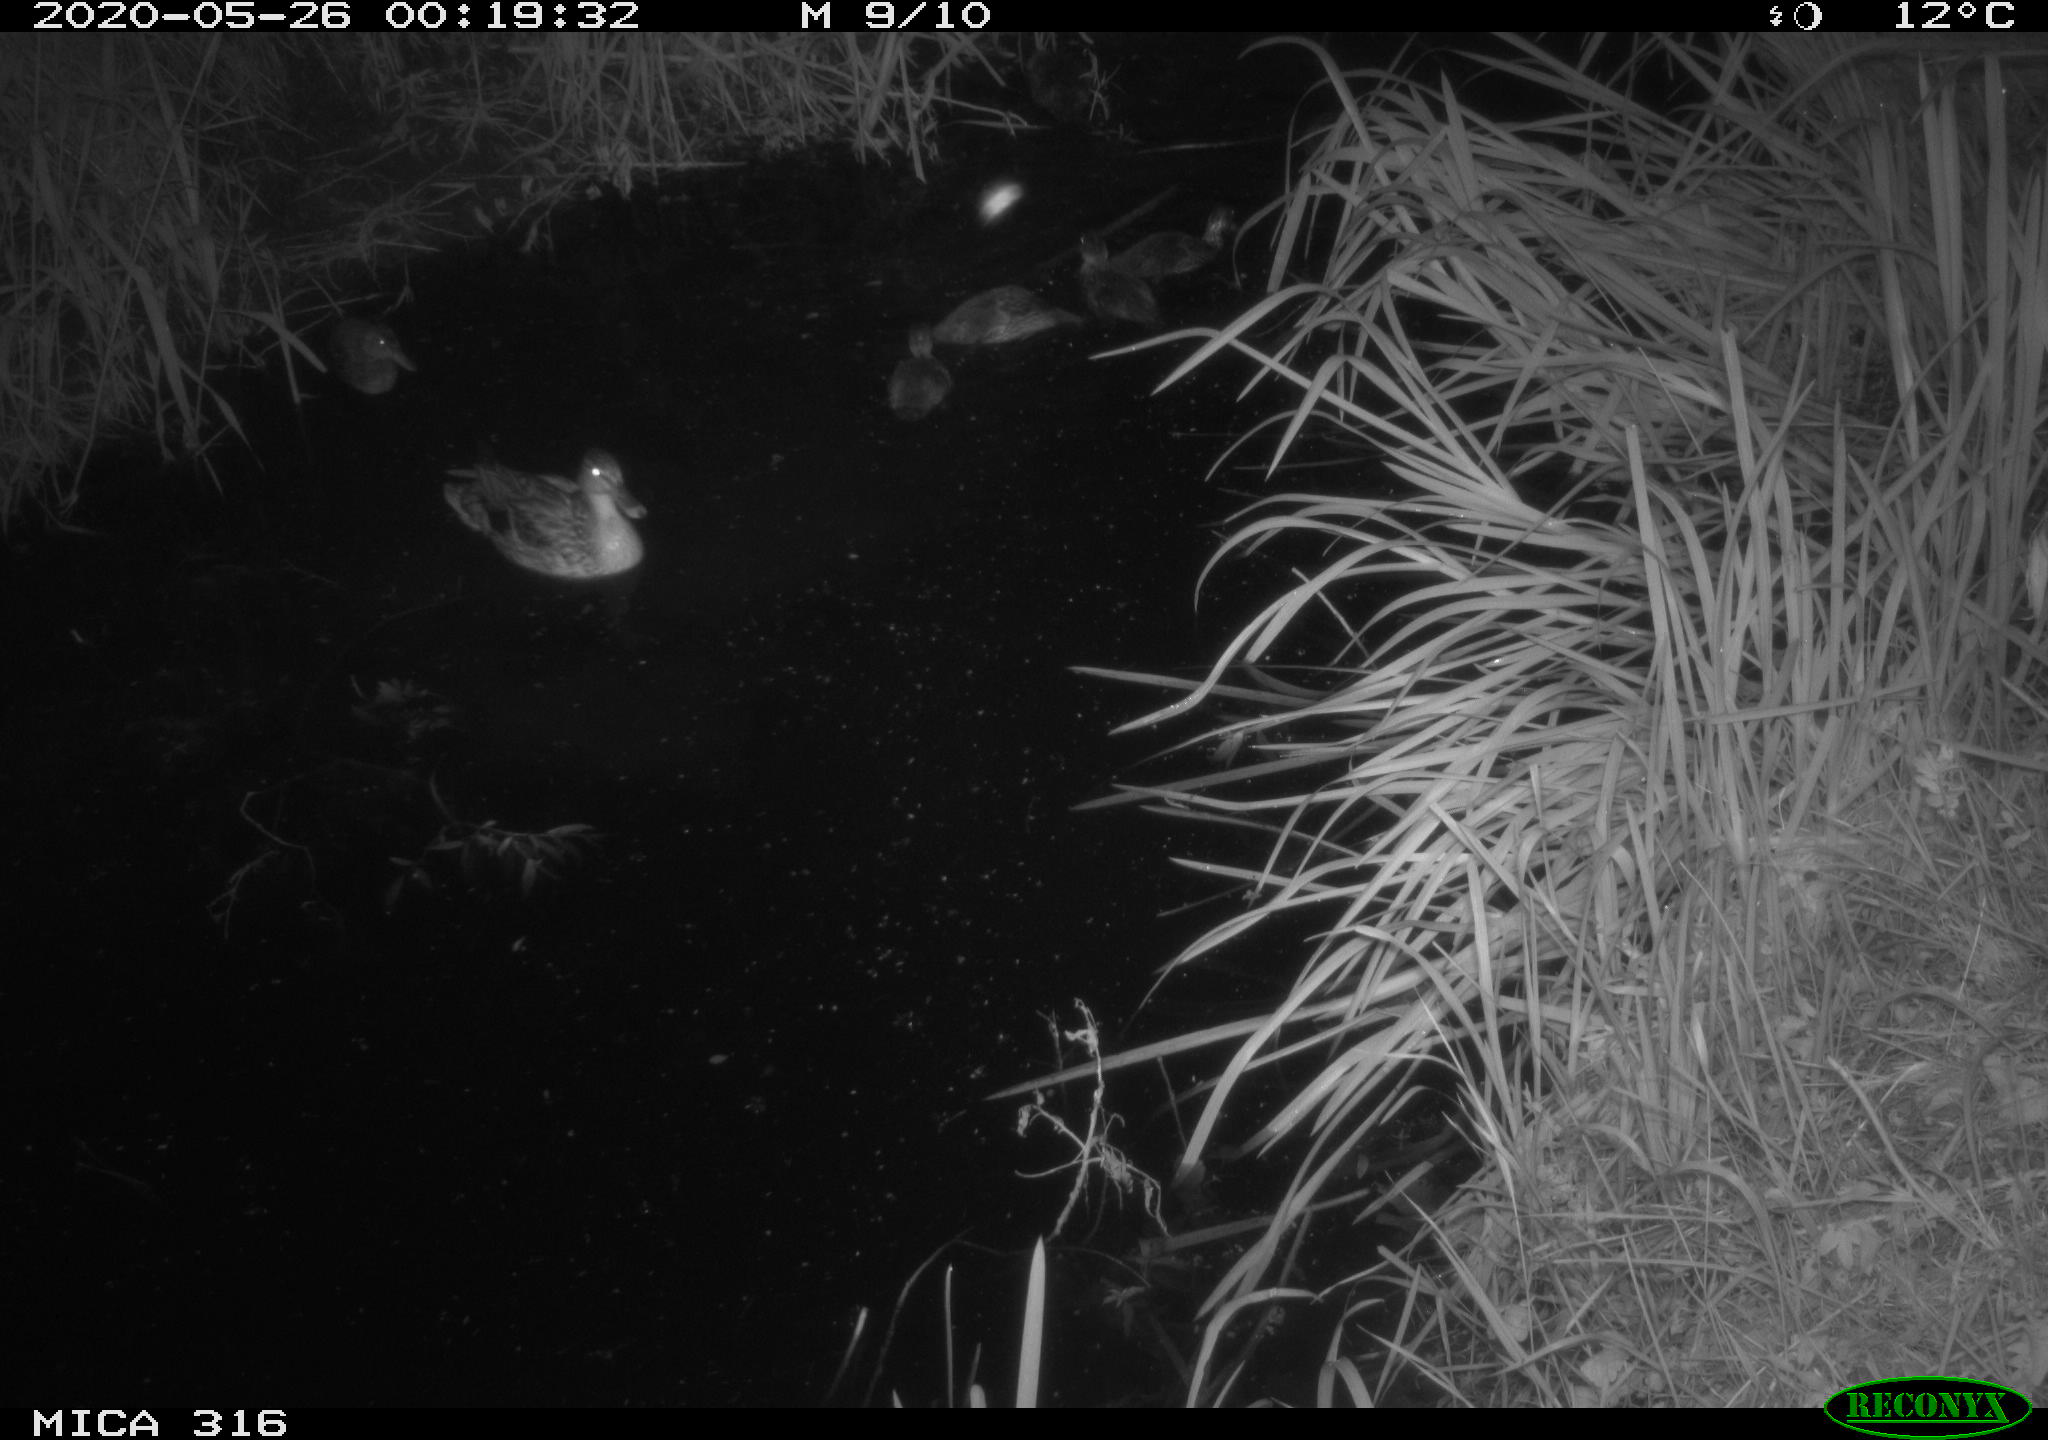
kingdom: Animalia
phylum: Chordata
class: Aves
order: Anseriformes
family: Anatidae
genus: Anas
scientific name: Anas platyrhynchos
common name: Mallard
